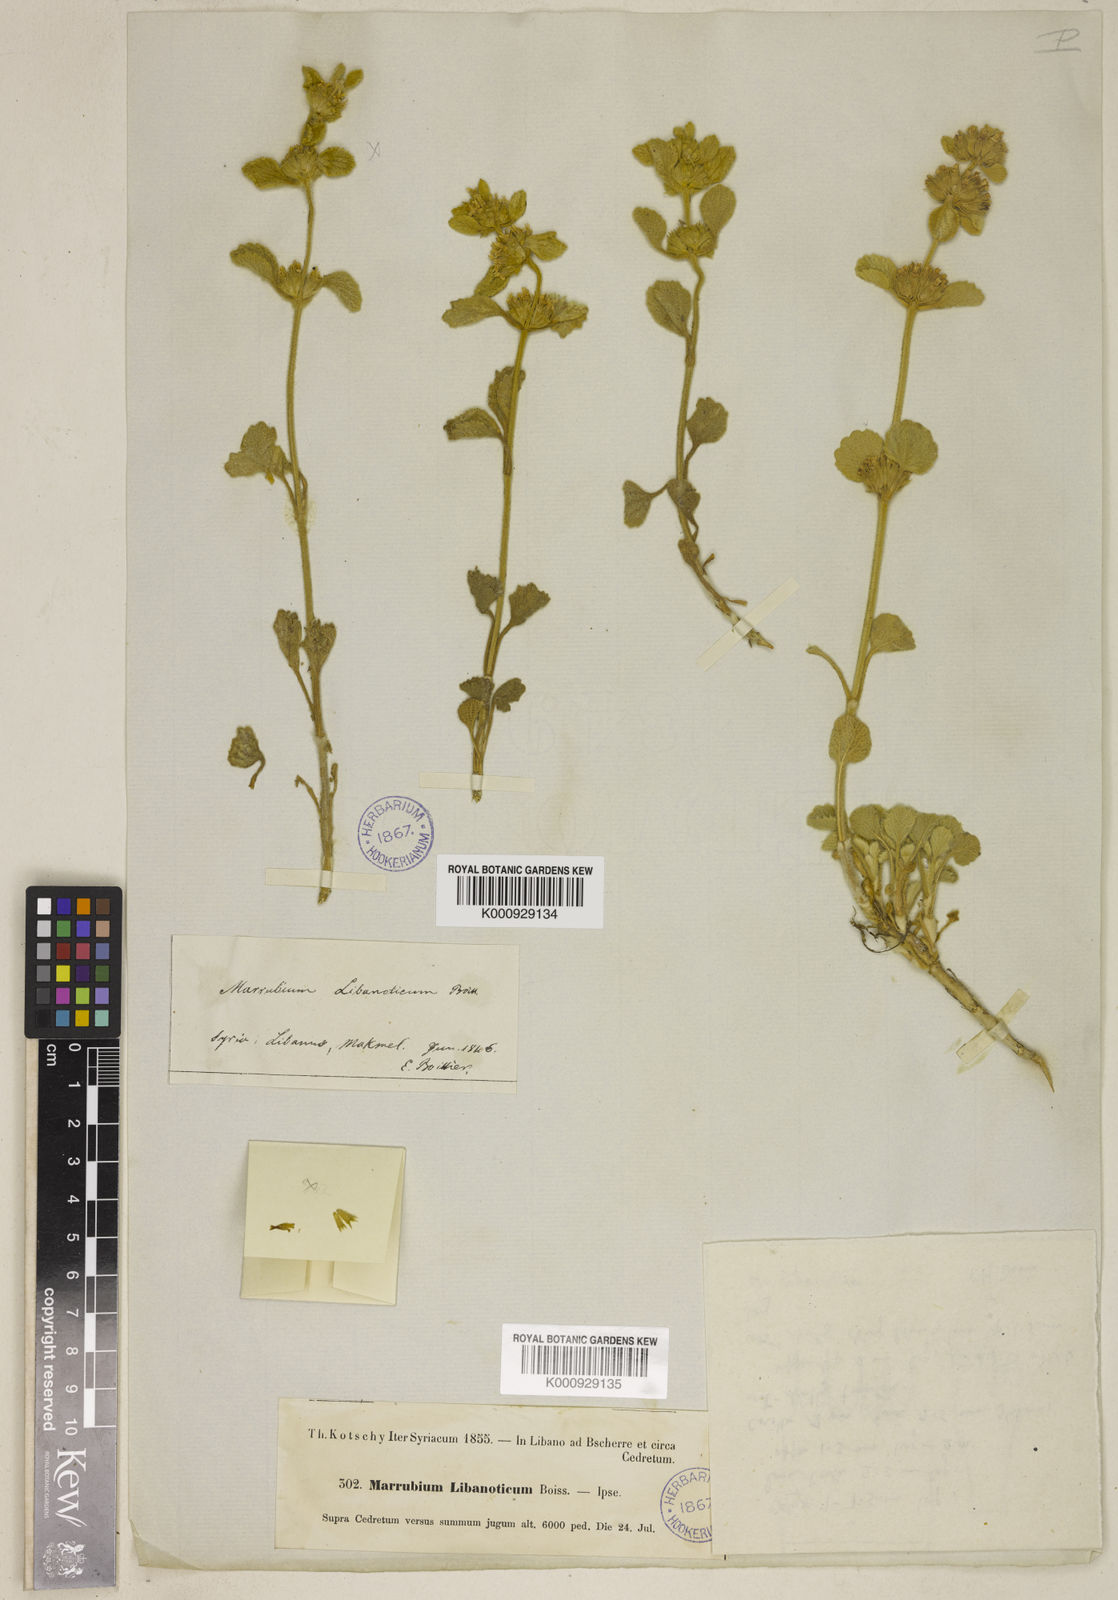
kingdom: Plantae
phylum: Tracheophyta
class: Magnoliopsida
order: Lamiales
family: Lamiaceae
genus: Marrubium
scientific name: Marrubium globosum
